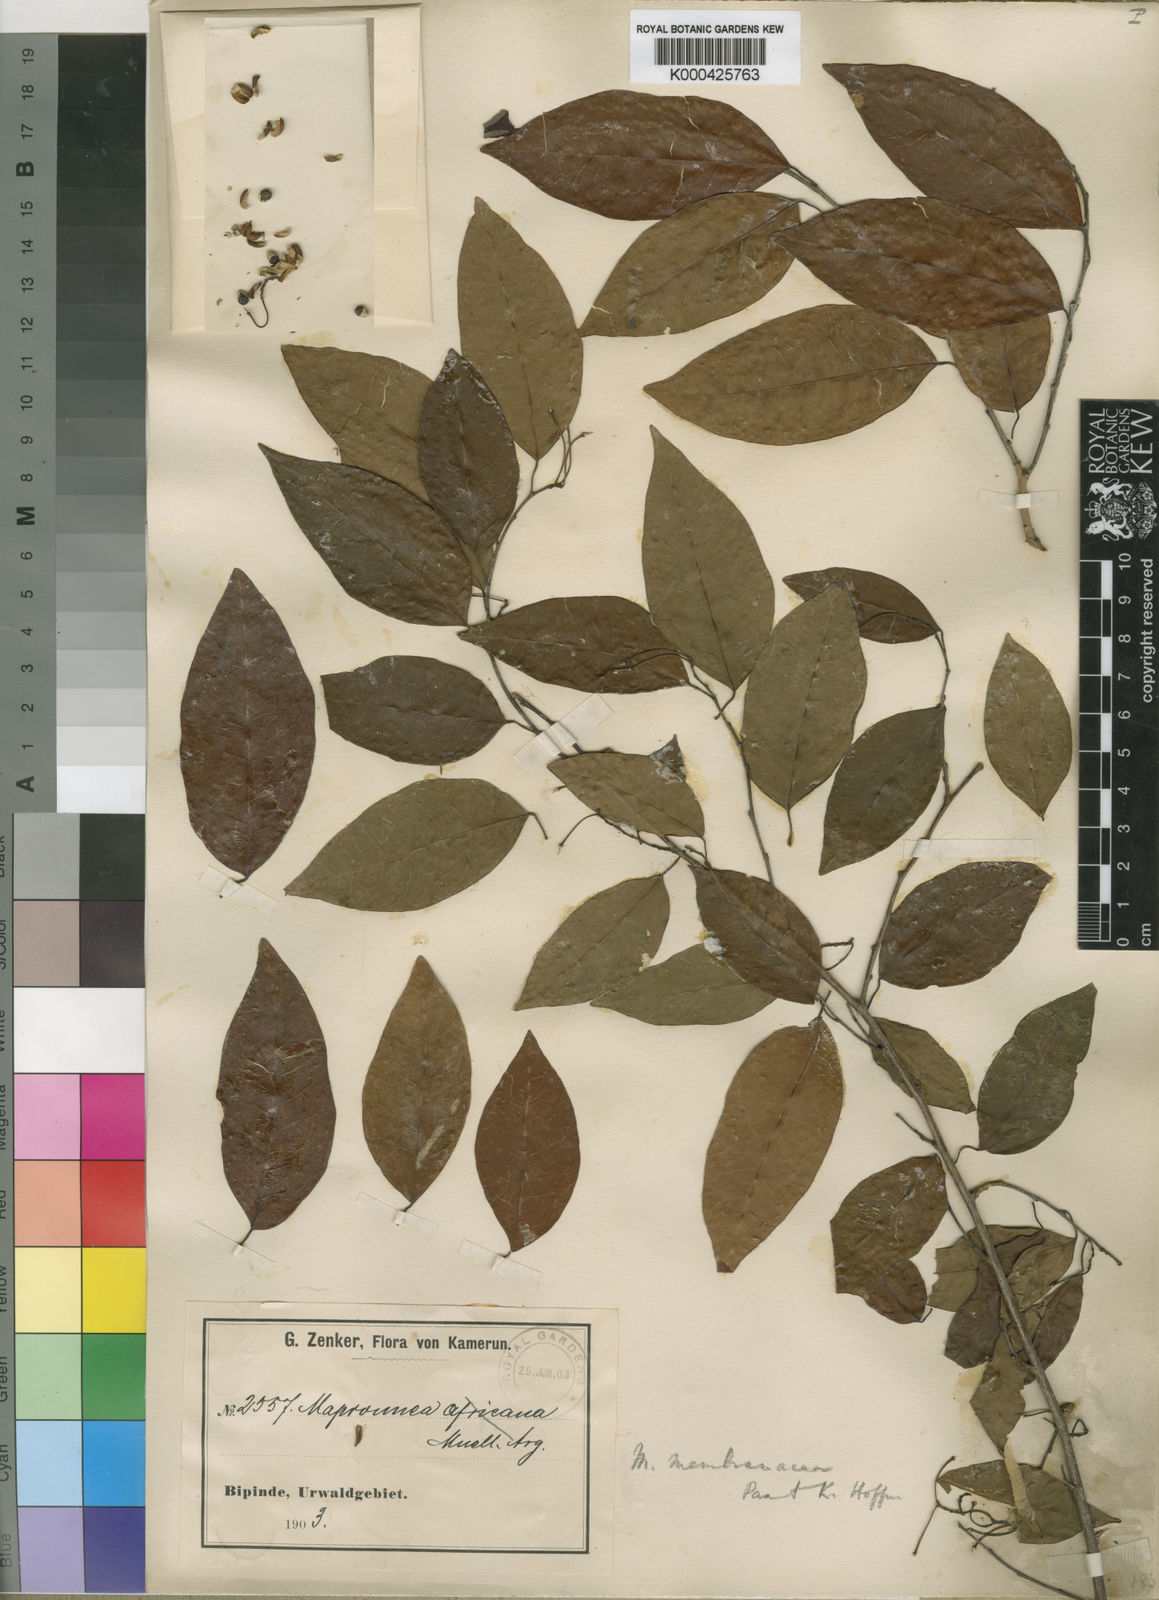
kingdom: Plantae
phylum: Tracheophyta
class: Magnoliopsida
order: Malpighiales
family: Euphorbiaceae
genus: Maprounea
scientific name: Maprounea membranacea
